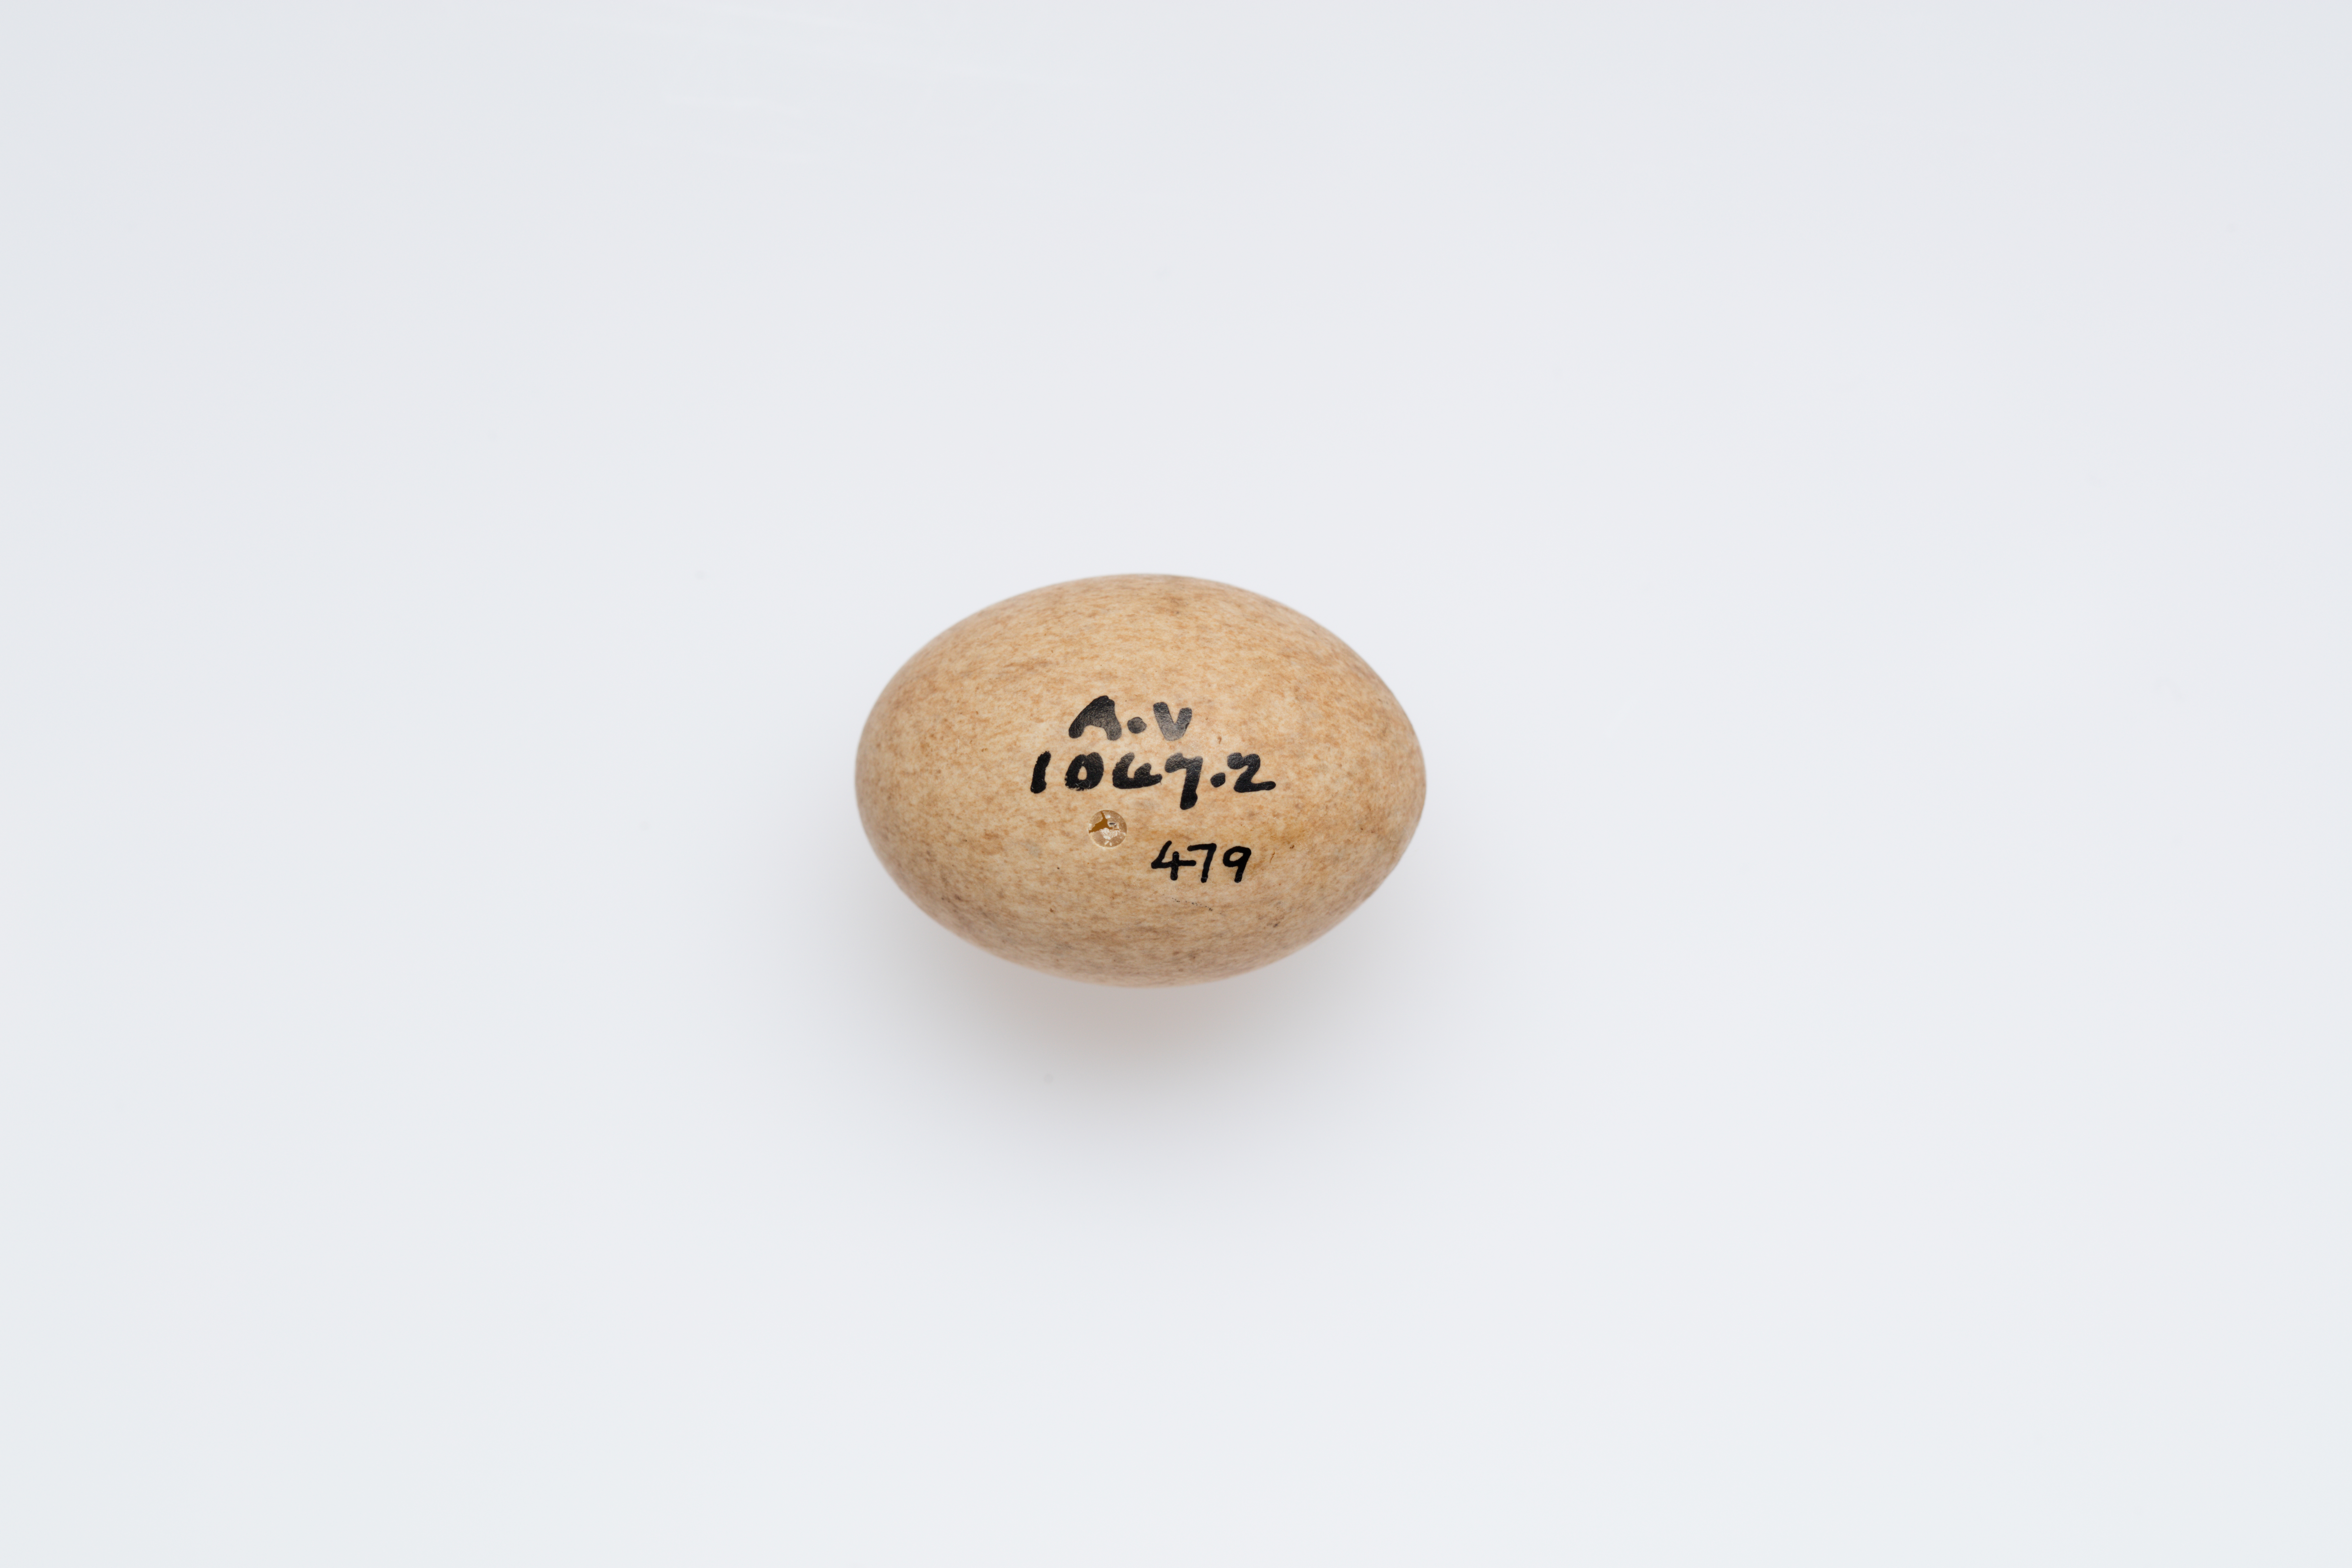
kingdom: Animalia
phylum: Chordata
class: Aves
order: Gruiformes
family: Rallidae
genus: Porzana
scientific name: Porzana tabuensis
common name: Spotless crake
